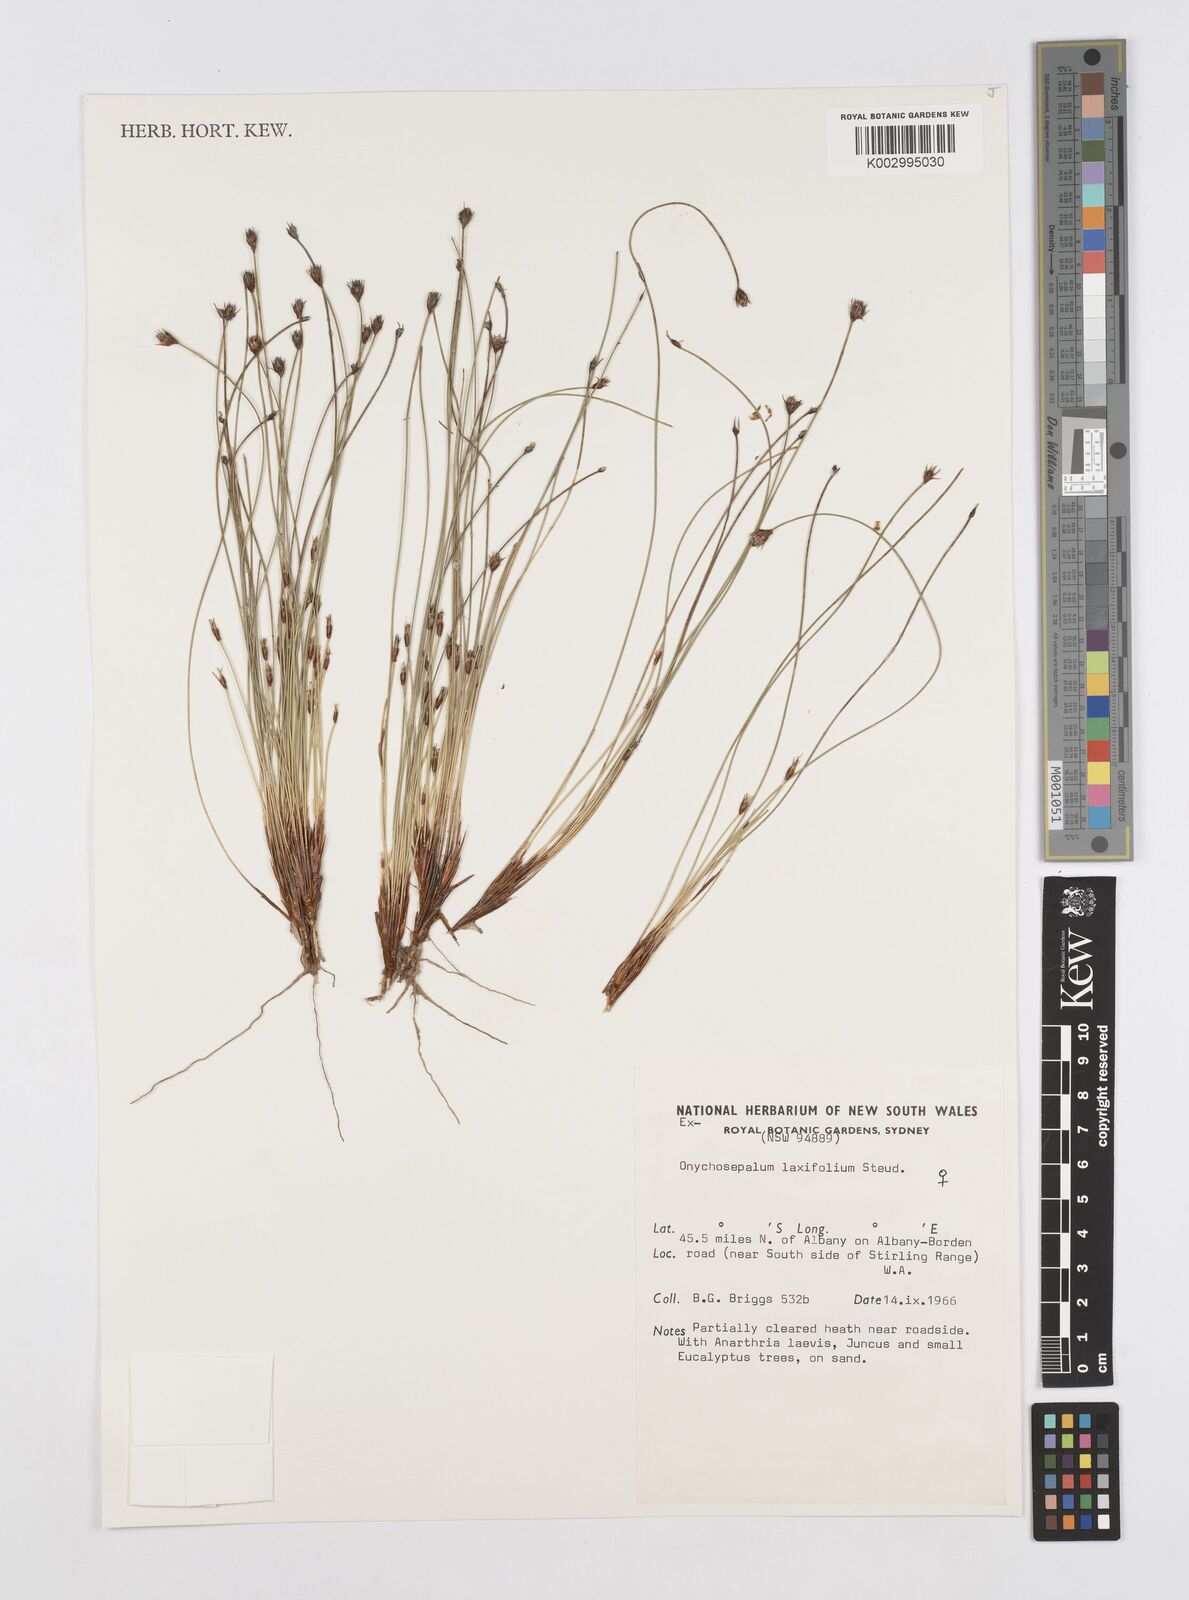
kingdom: Plantae
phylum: Tracheophyta
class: Liliopsida
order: Poales
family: Restionaceae
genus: Desmocladus
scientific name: Desmocladus laxiflorus
